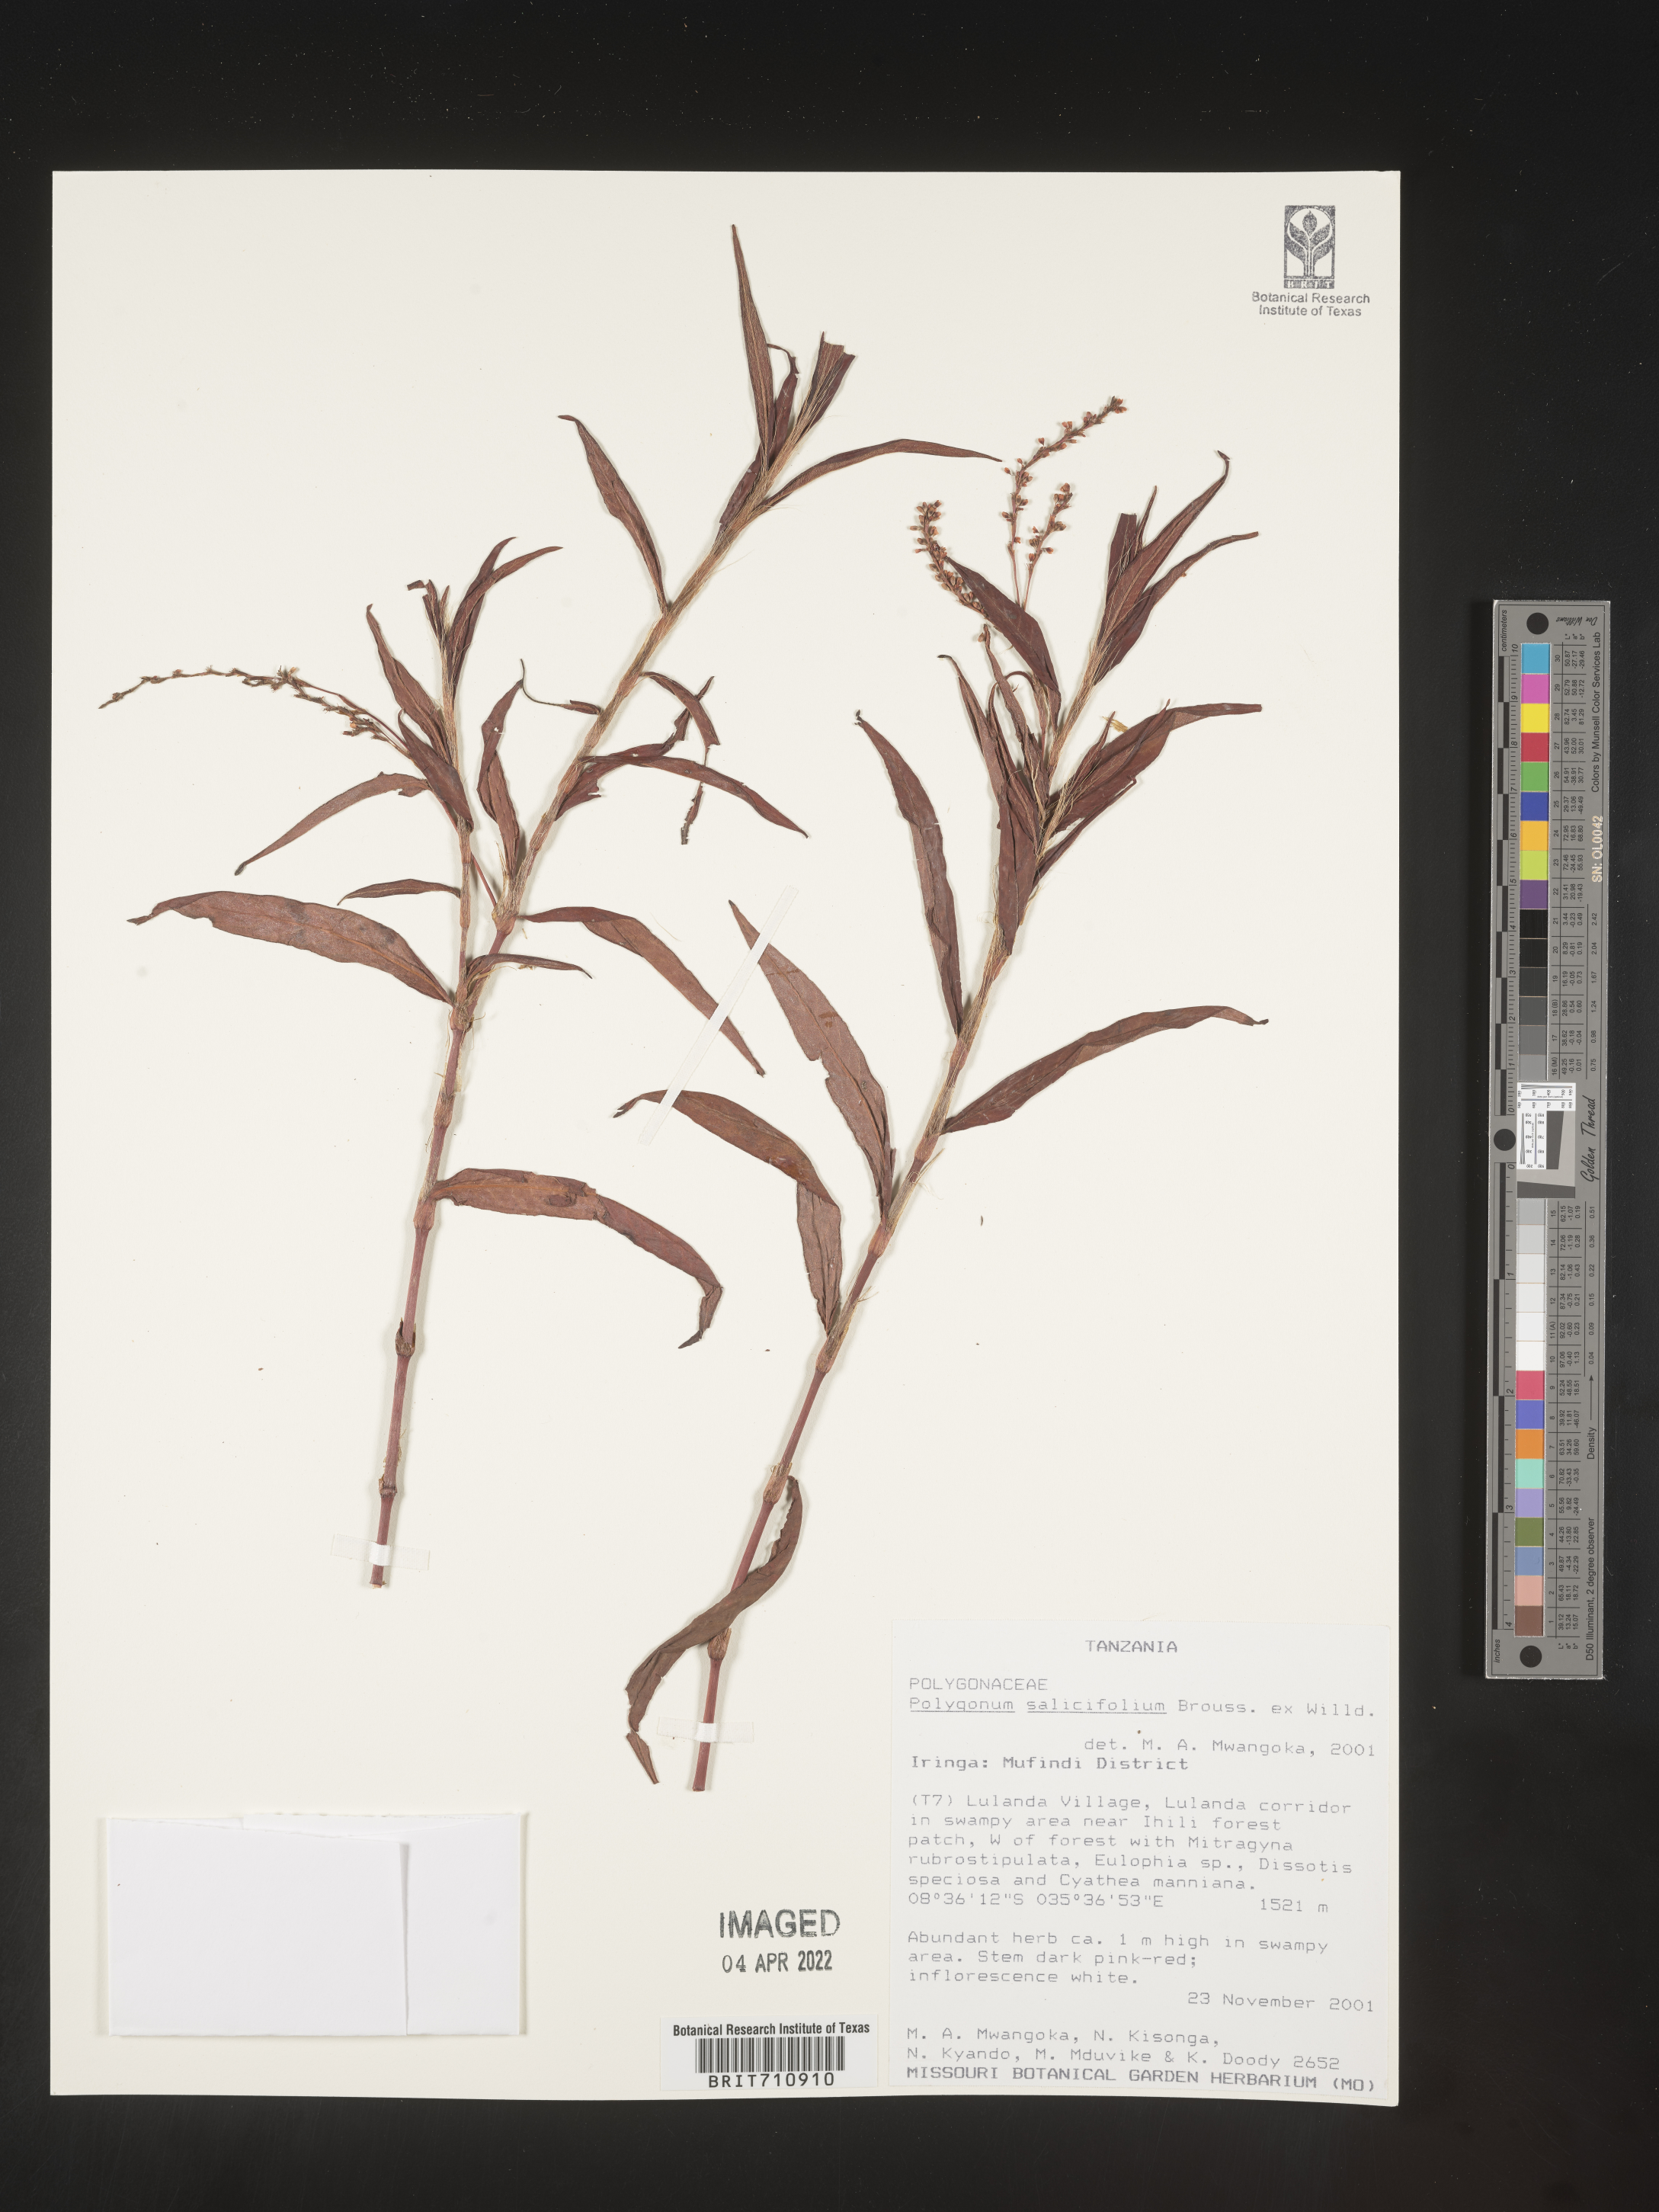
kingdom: Plantae
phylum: Tracheophyta
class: Magnoliopsida
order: Caryophyllales
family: Polygonaceae
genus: Polygonum
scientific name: Polygonum
